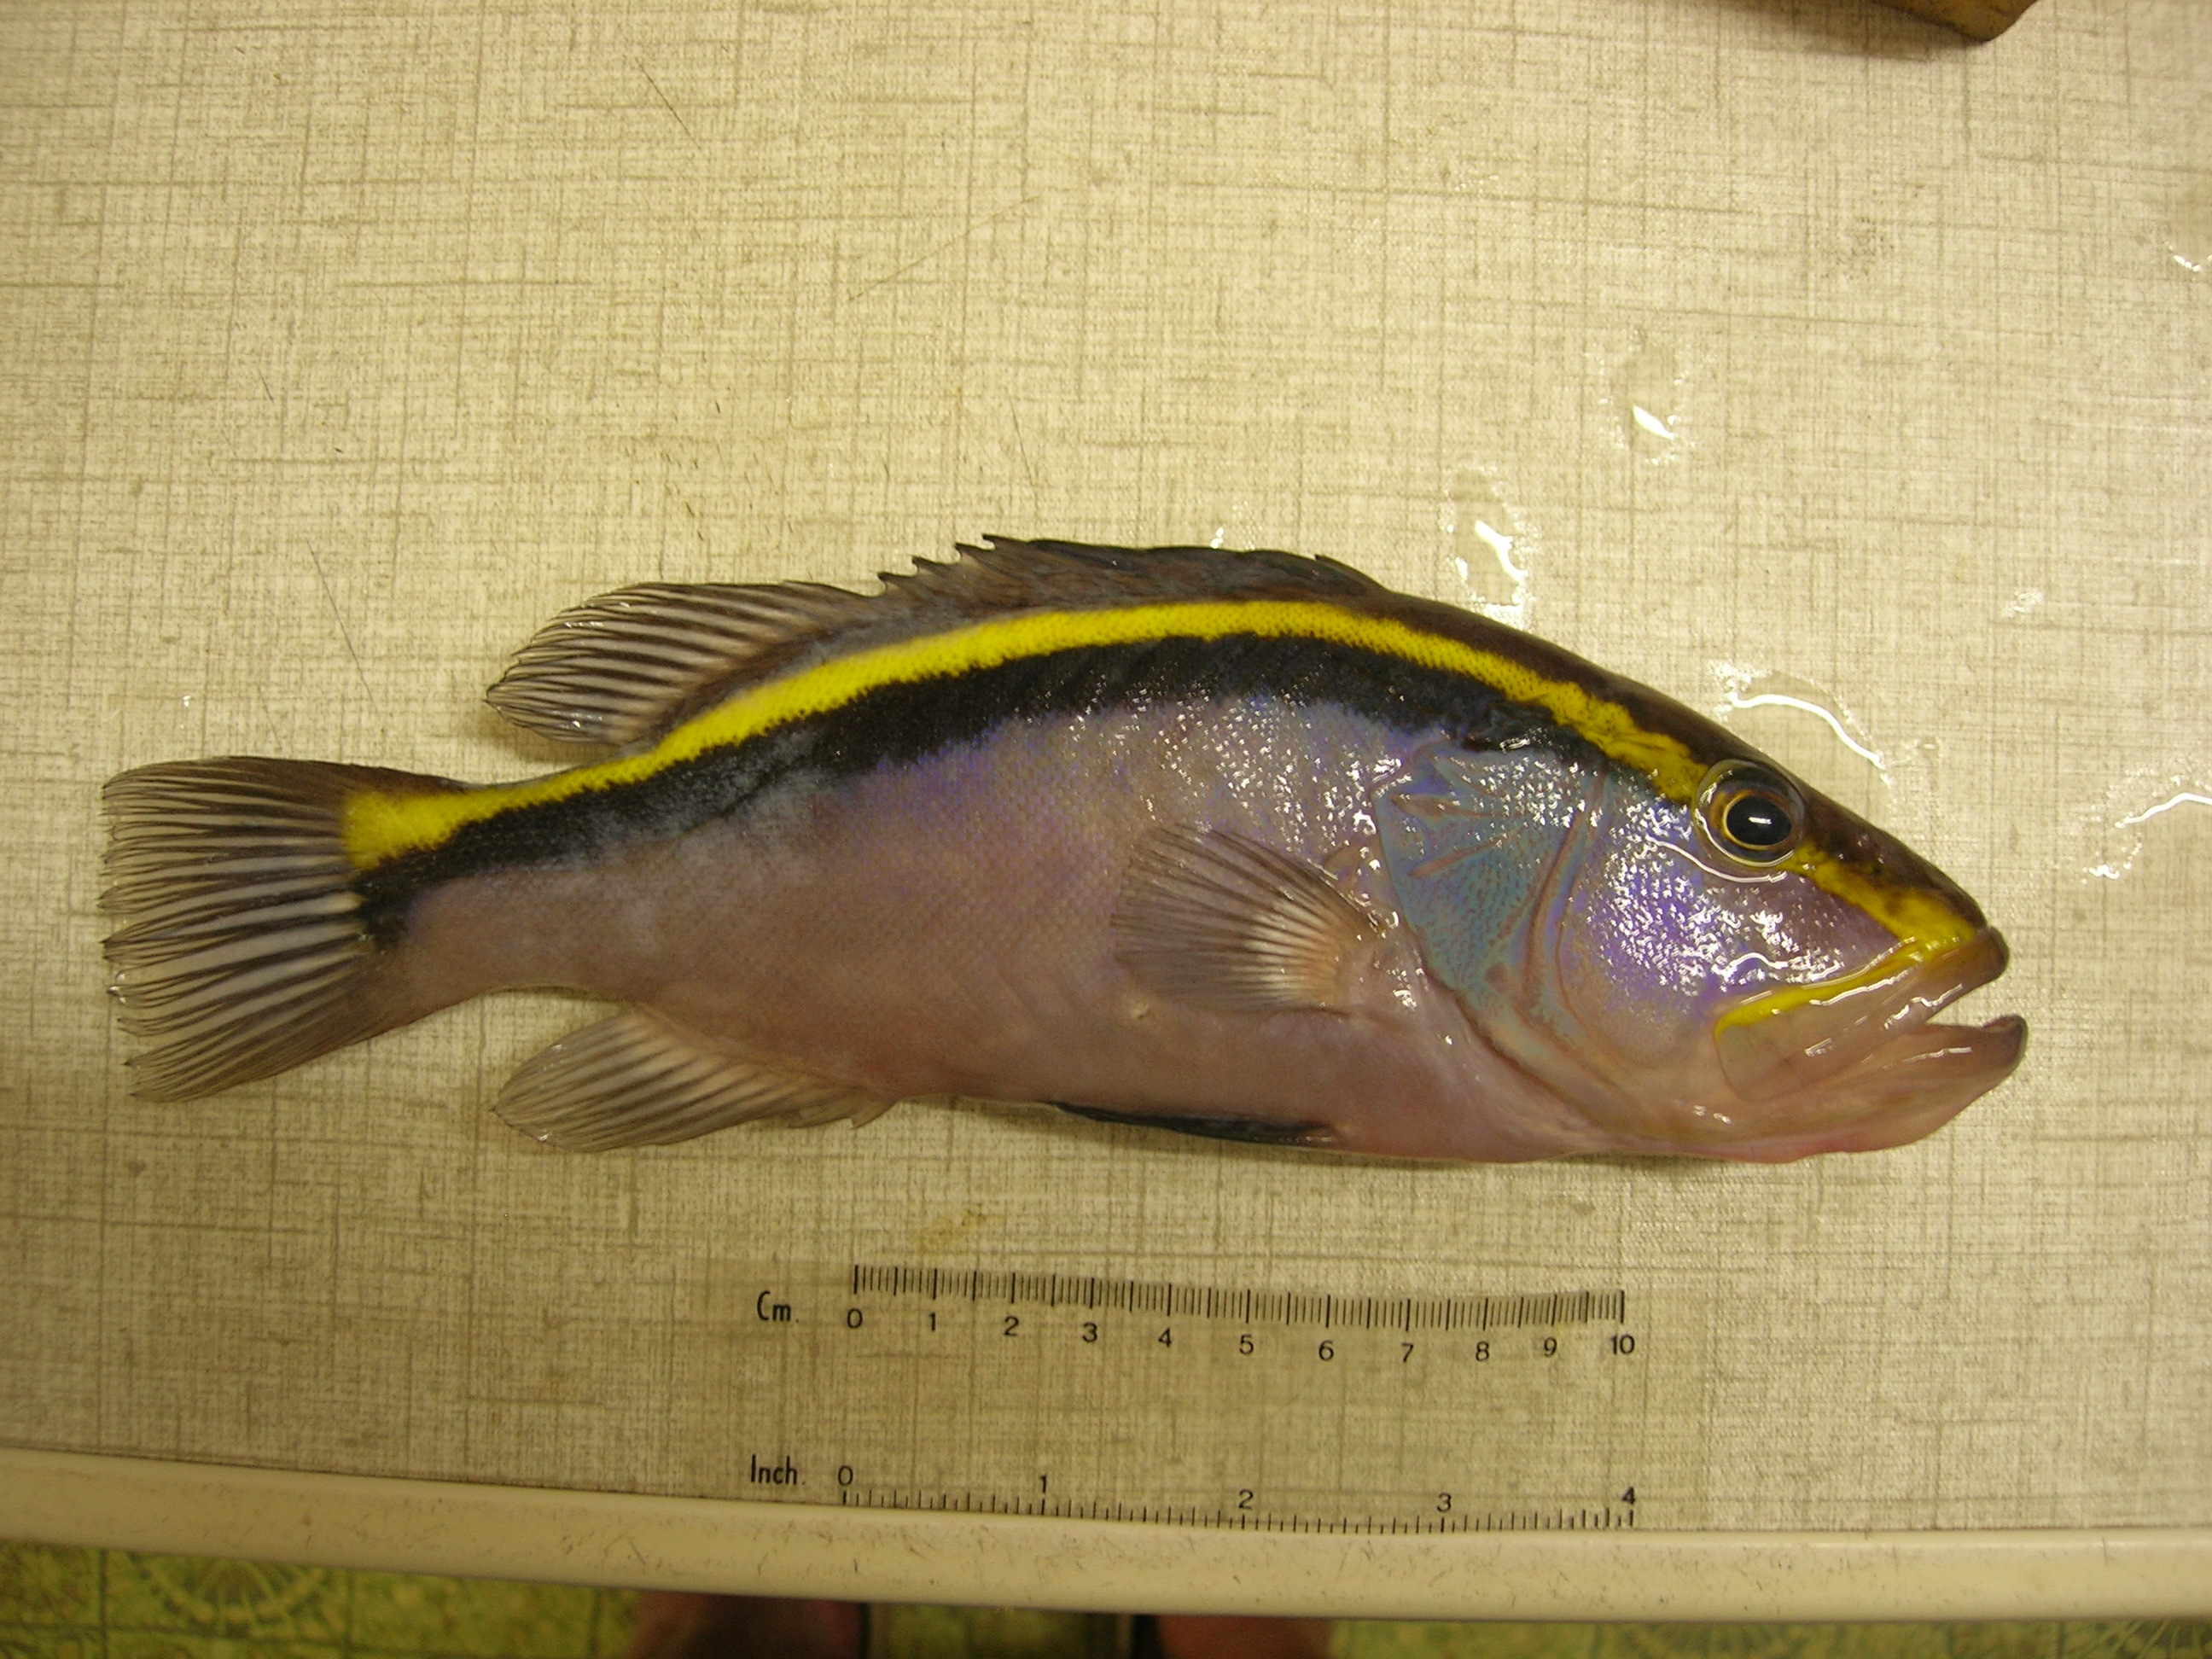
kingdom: Animalia
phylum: Chordata
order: Perciformes
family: Serranidae
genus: Aulacocephalus
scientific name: Aulacocephalus temminckii
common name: Goldribbon soapfish
